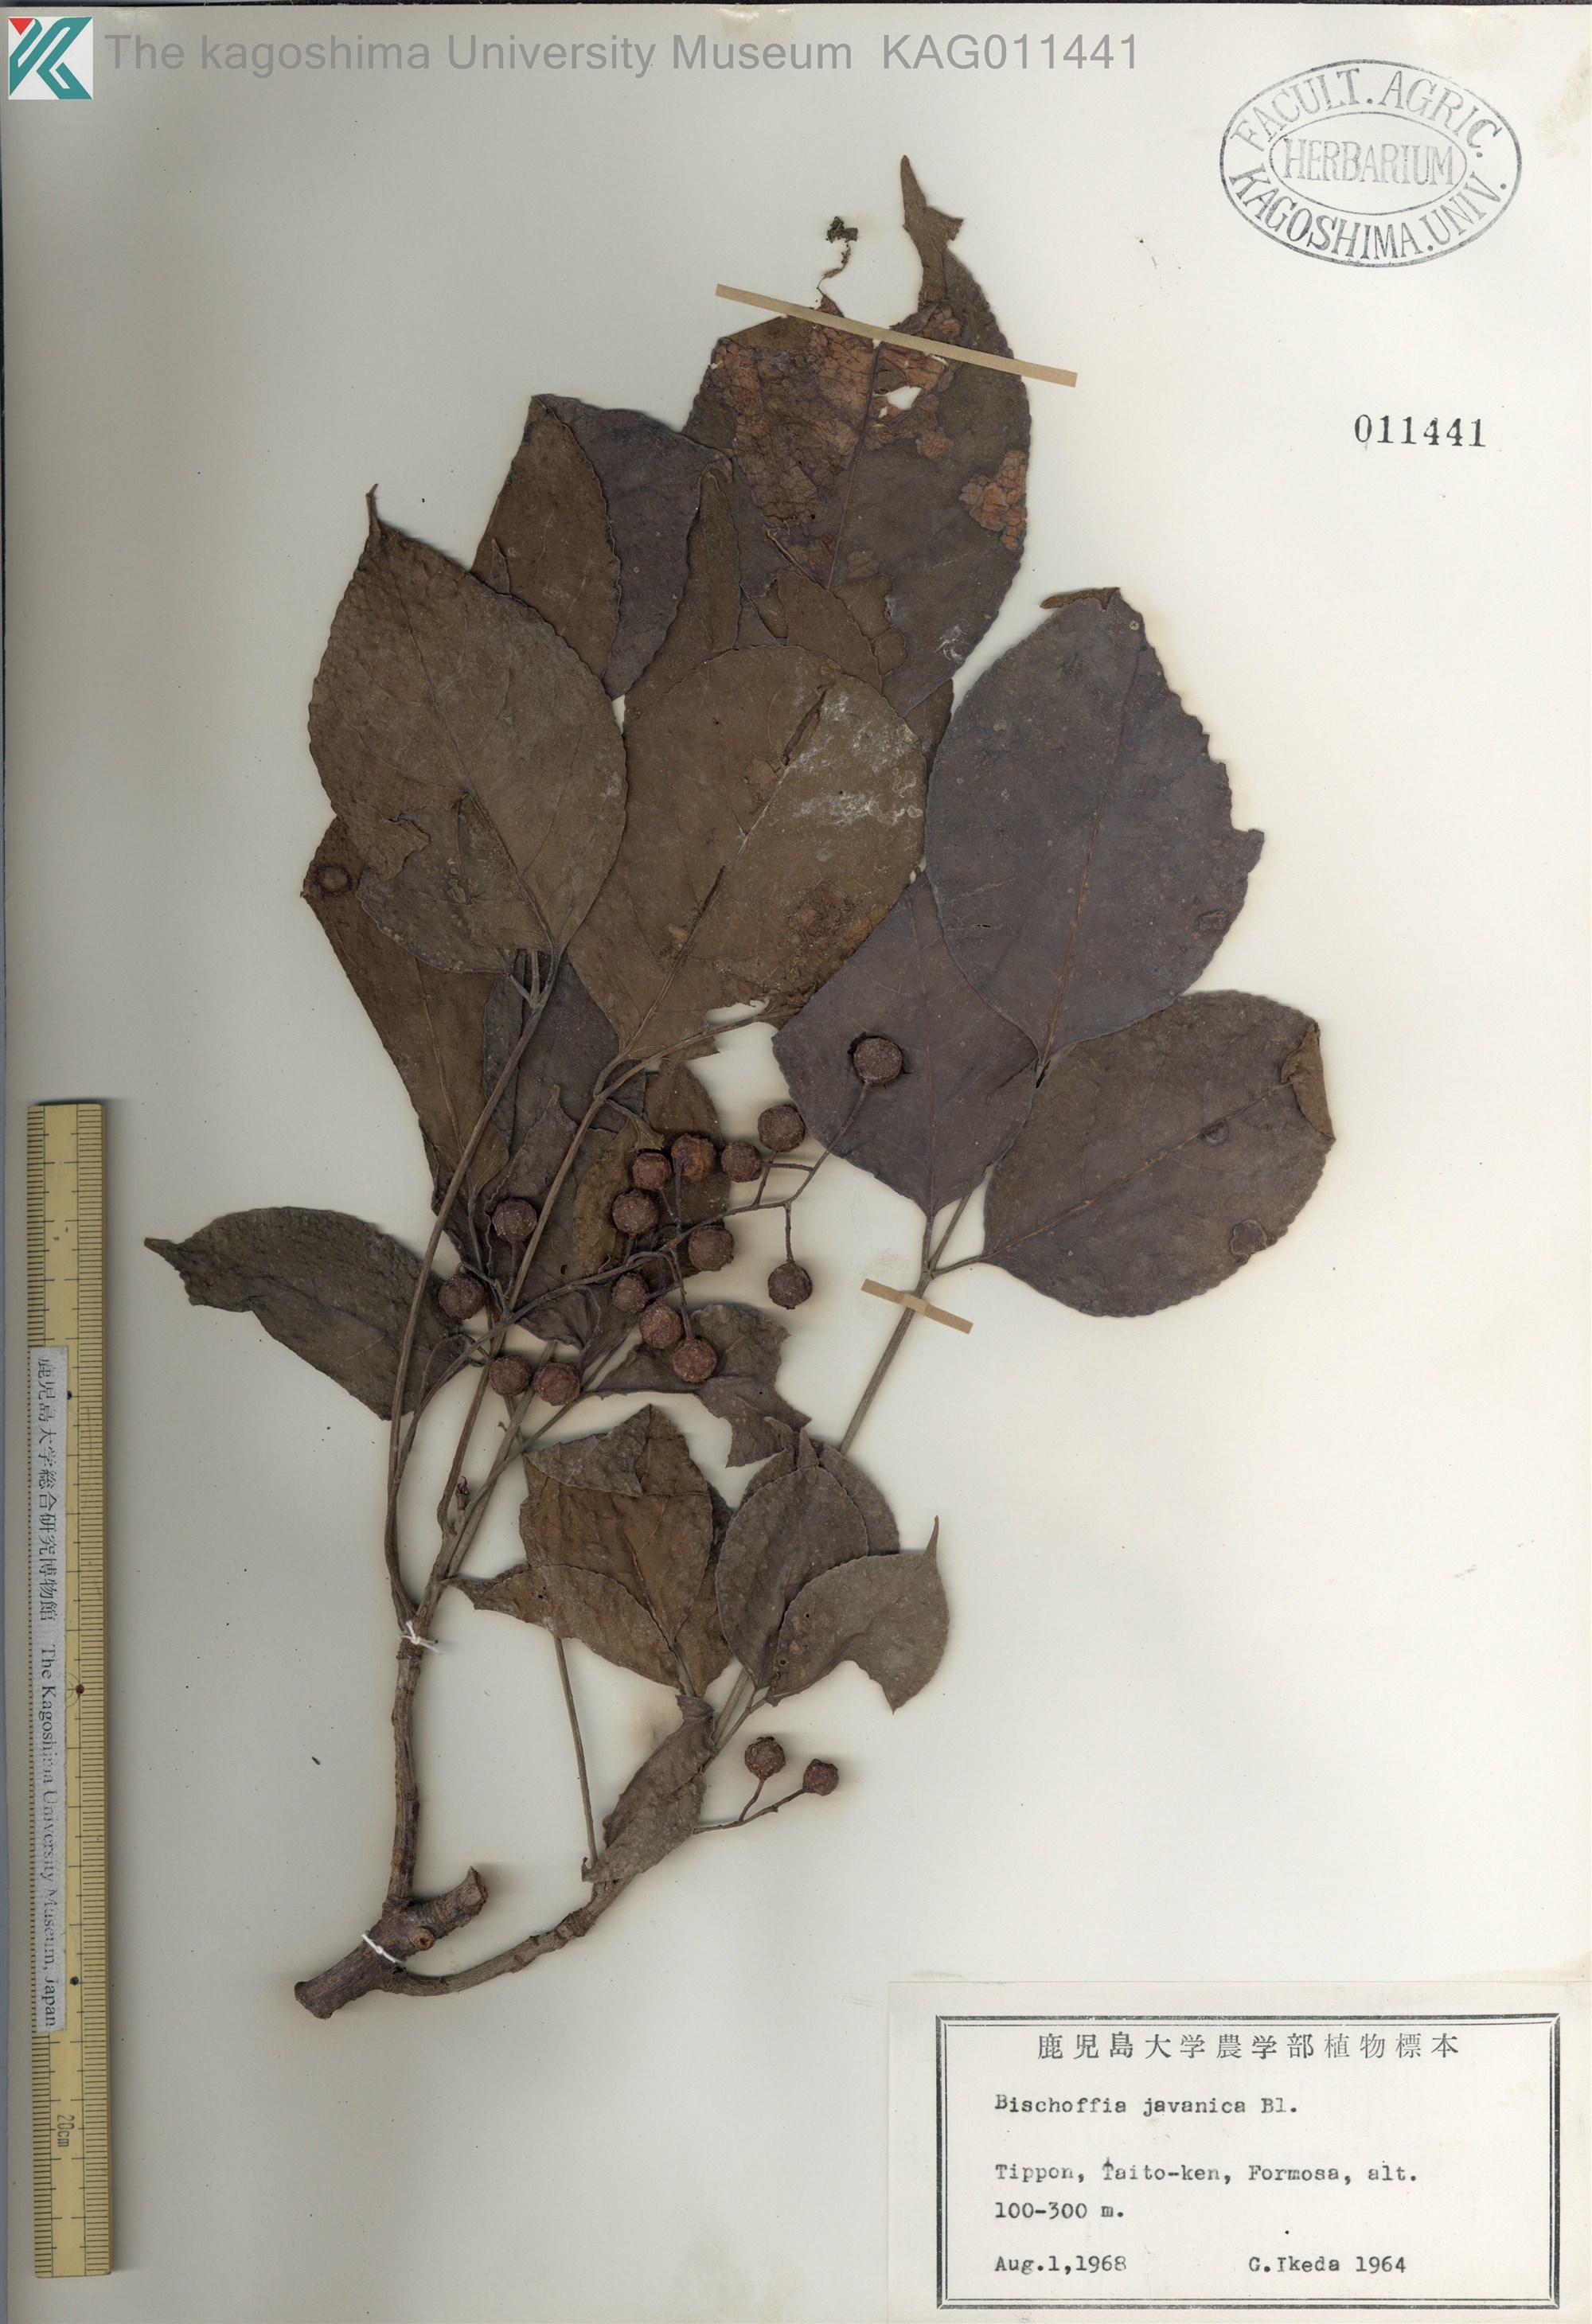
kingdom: Plantae
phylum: Tracheophyta
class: Magnoliopsida
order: Malpighiales
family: Phyllanthaceae
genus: Bischofia
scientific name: Bischofia javanica
